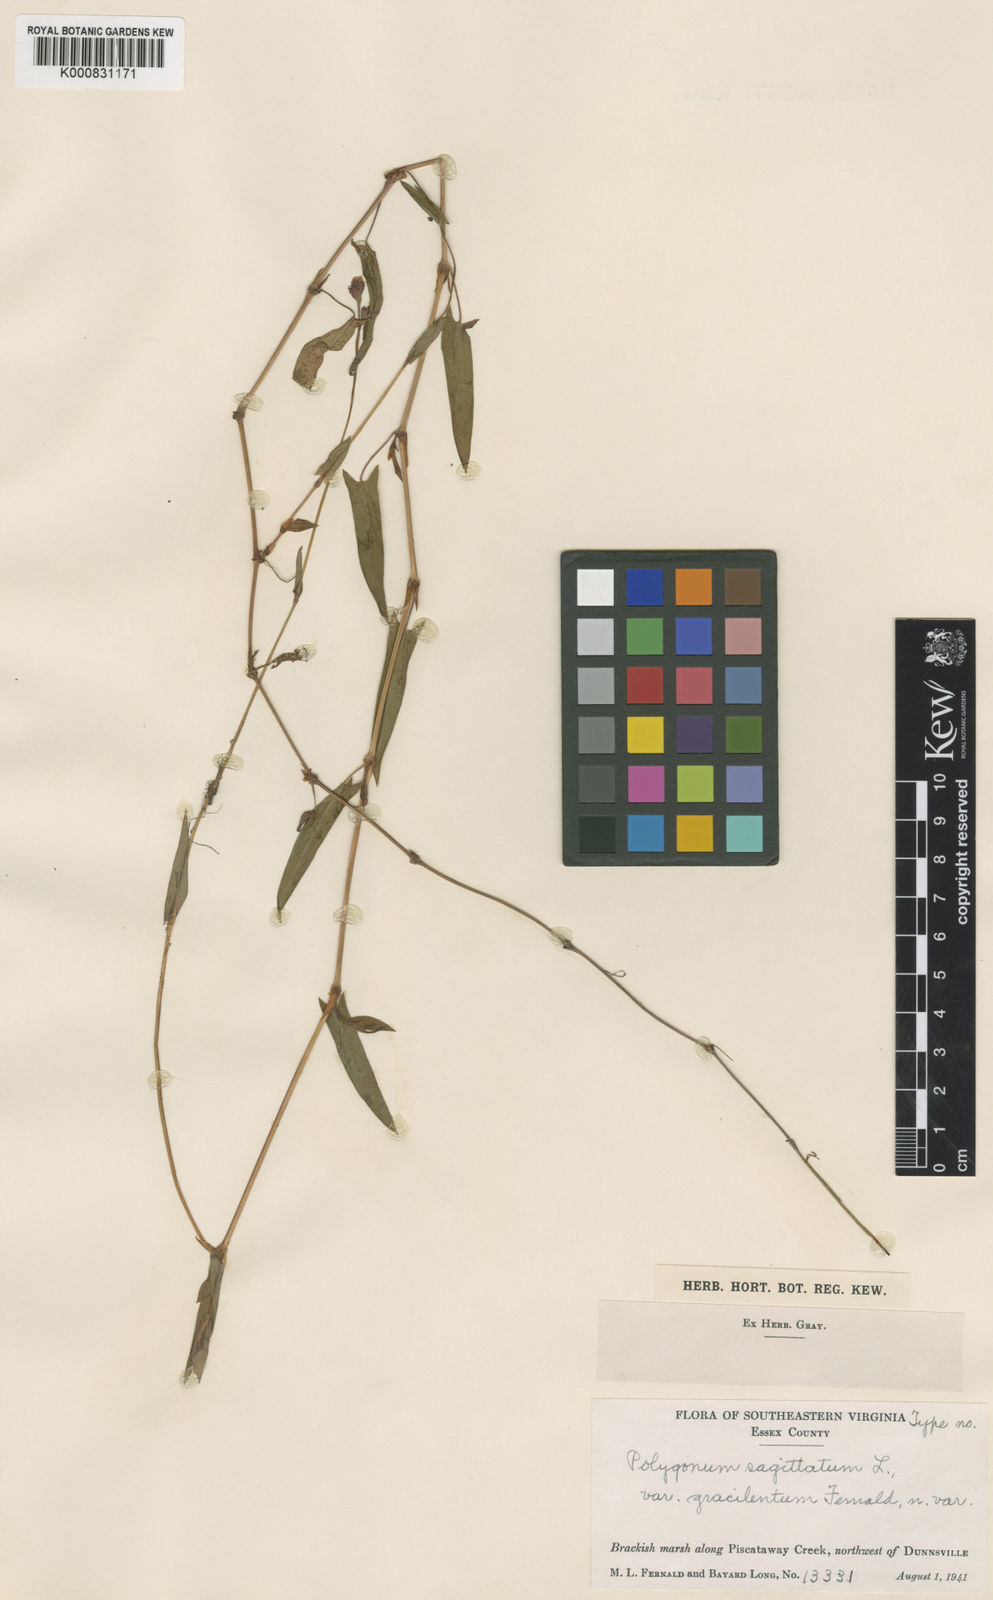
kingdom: Plantae
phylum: Tracheophyta
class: Magnoliopsida
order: Caryophyllales
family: Polygonaceae
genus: Persicaria
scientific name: Persicaria sagittata
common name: American tearthumb
